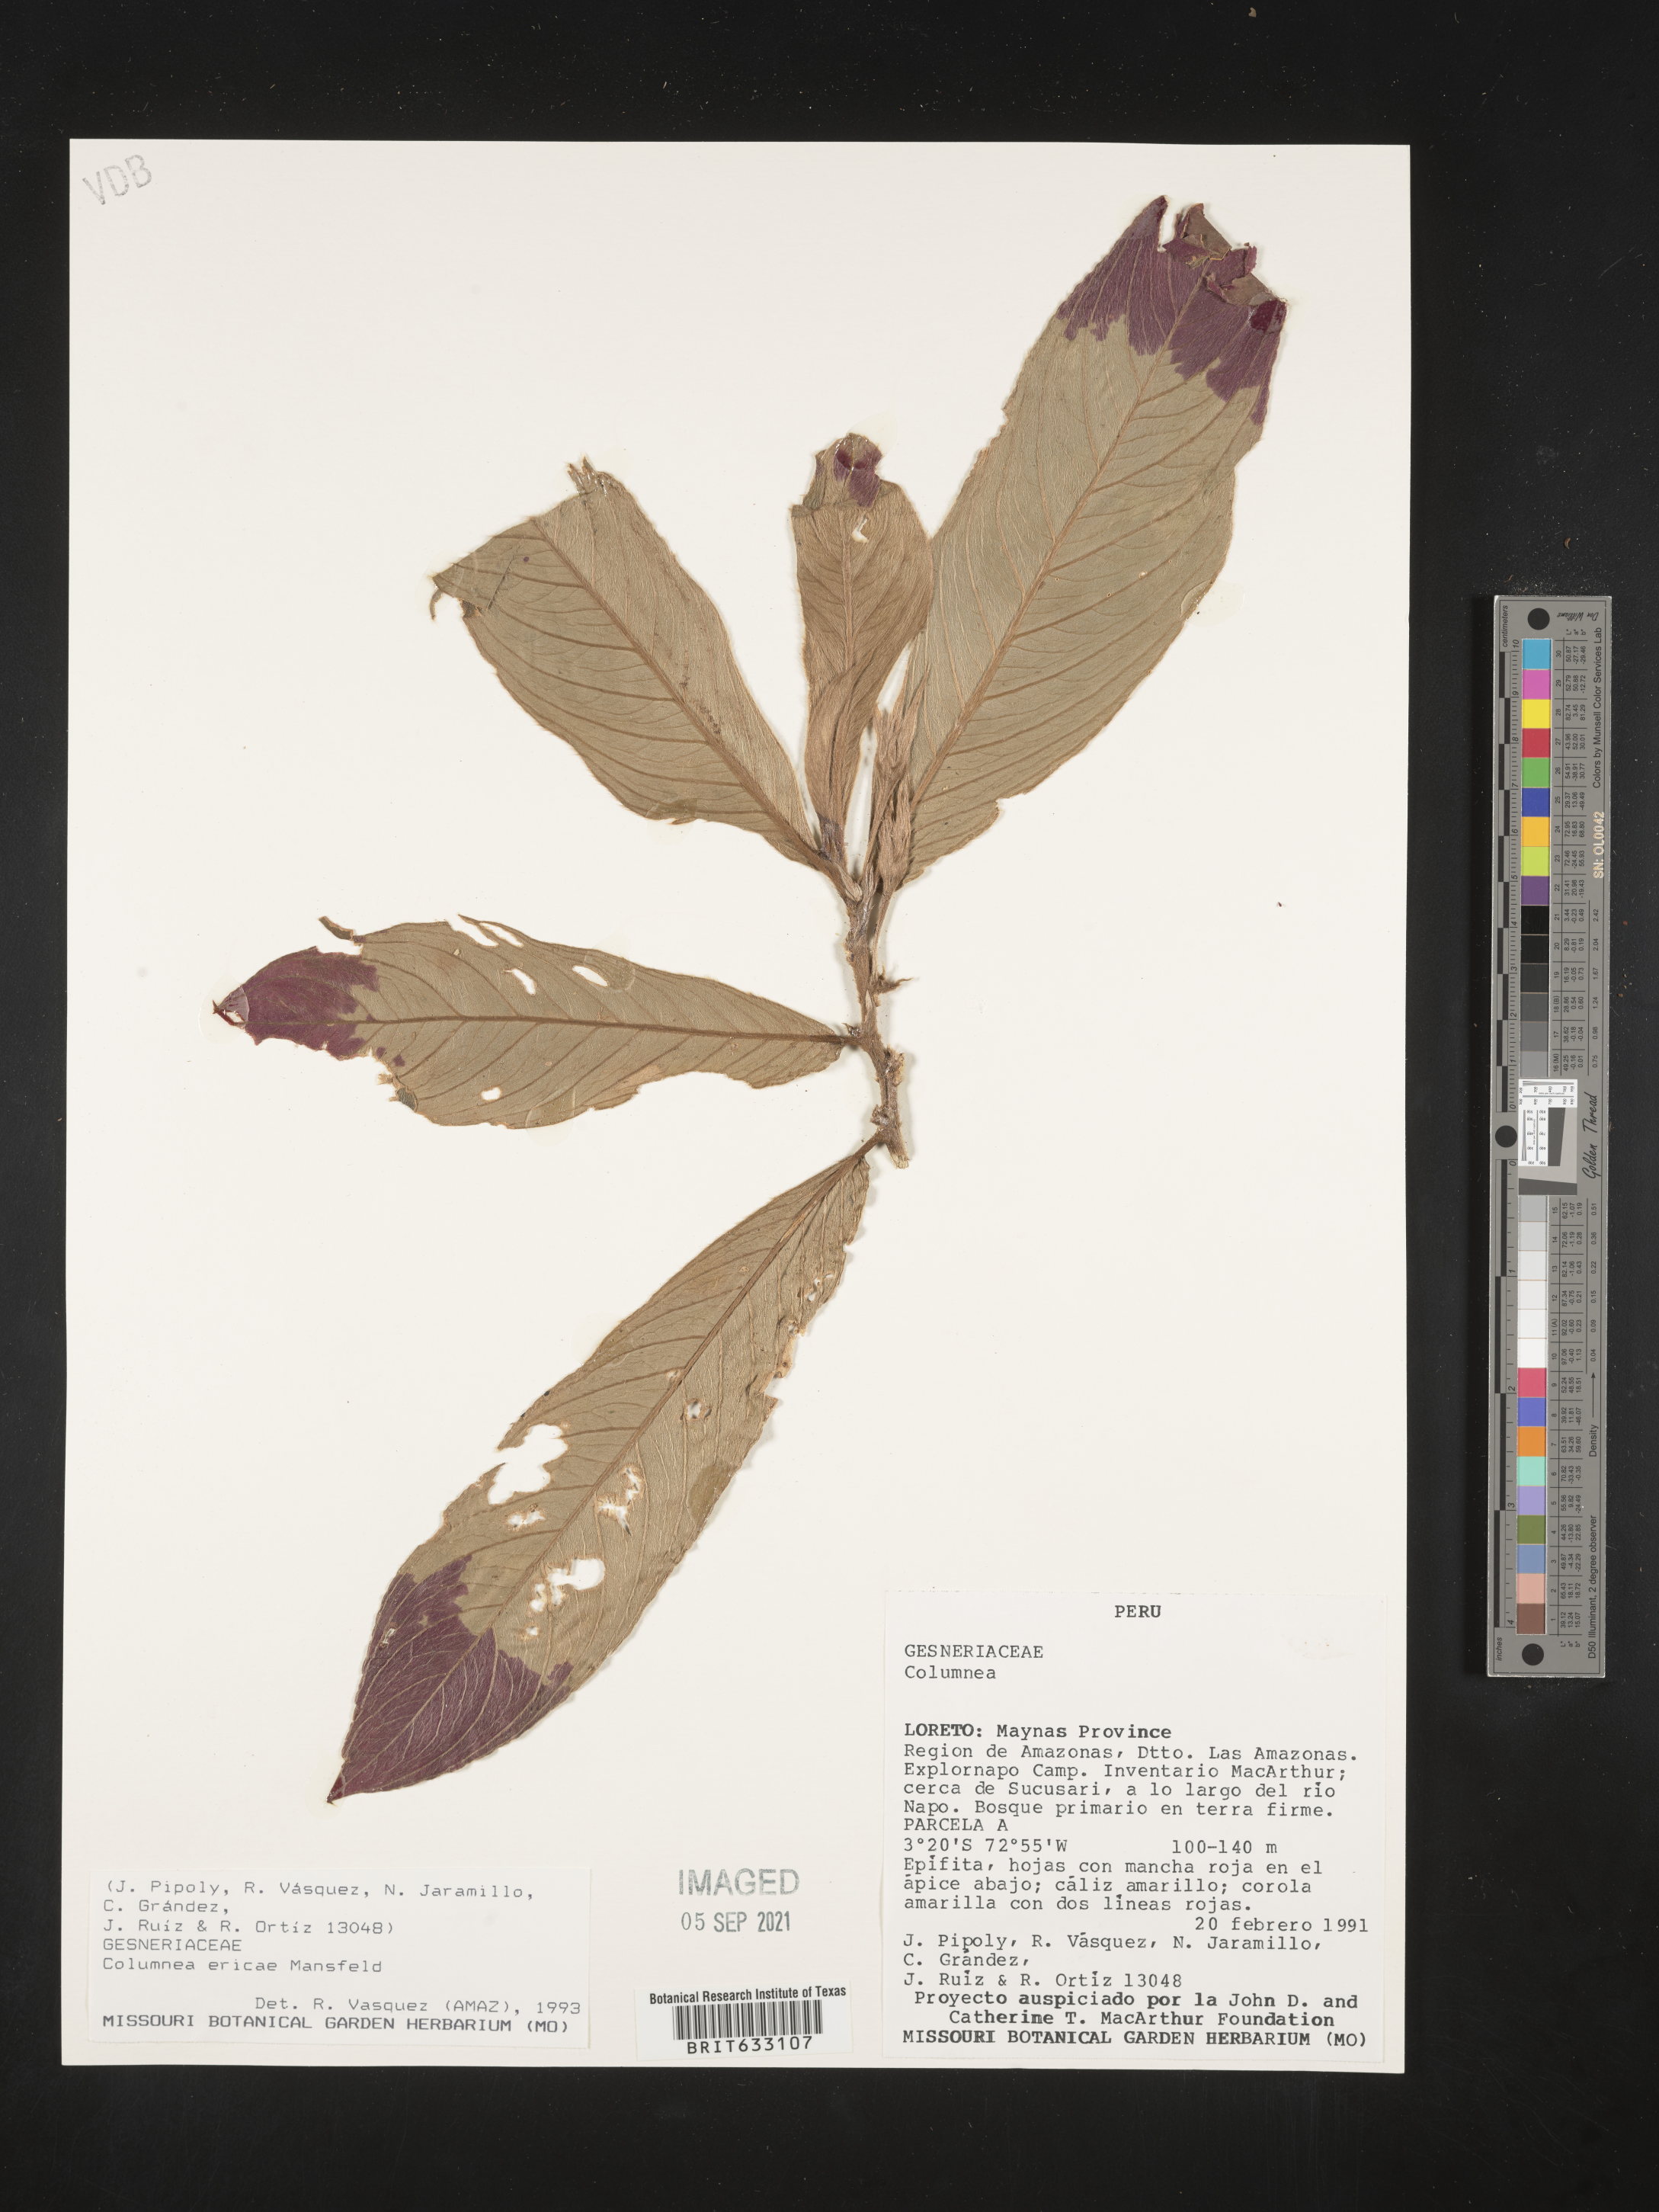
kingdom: Plantae
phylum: Tracheophyta
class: Magnoliopsida
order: Lamiales
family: Gesneriaceae
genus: Columnea
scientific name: Columnea
